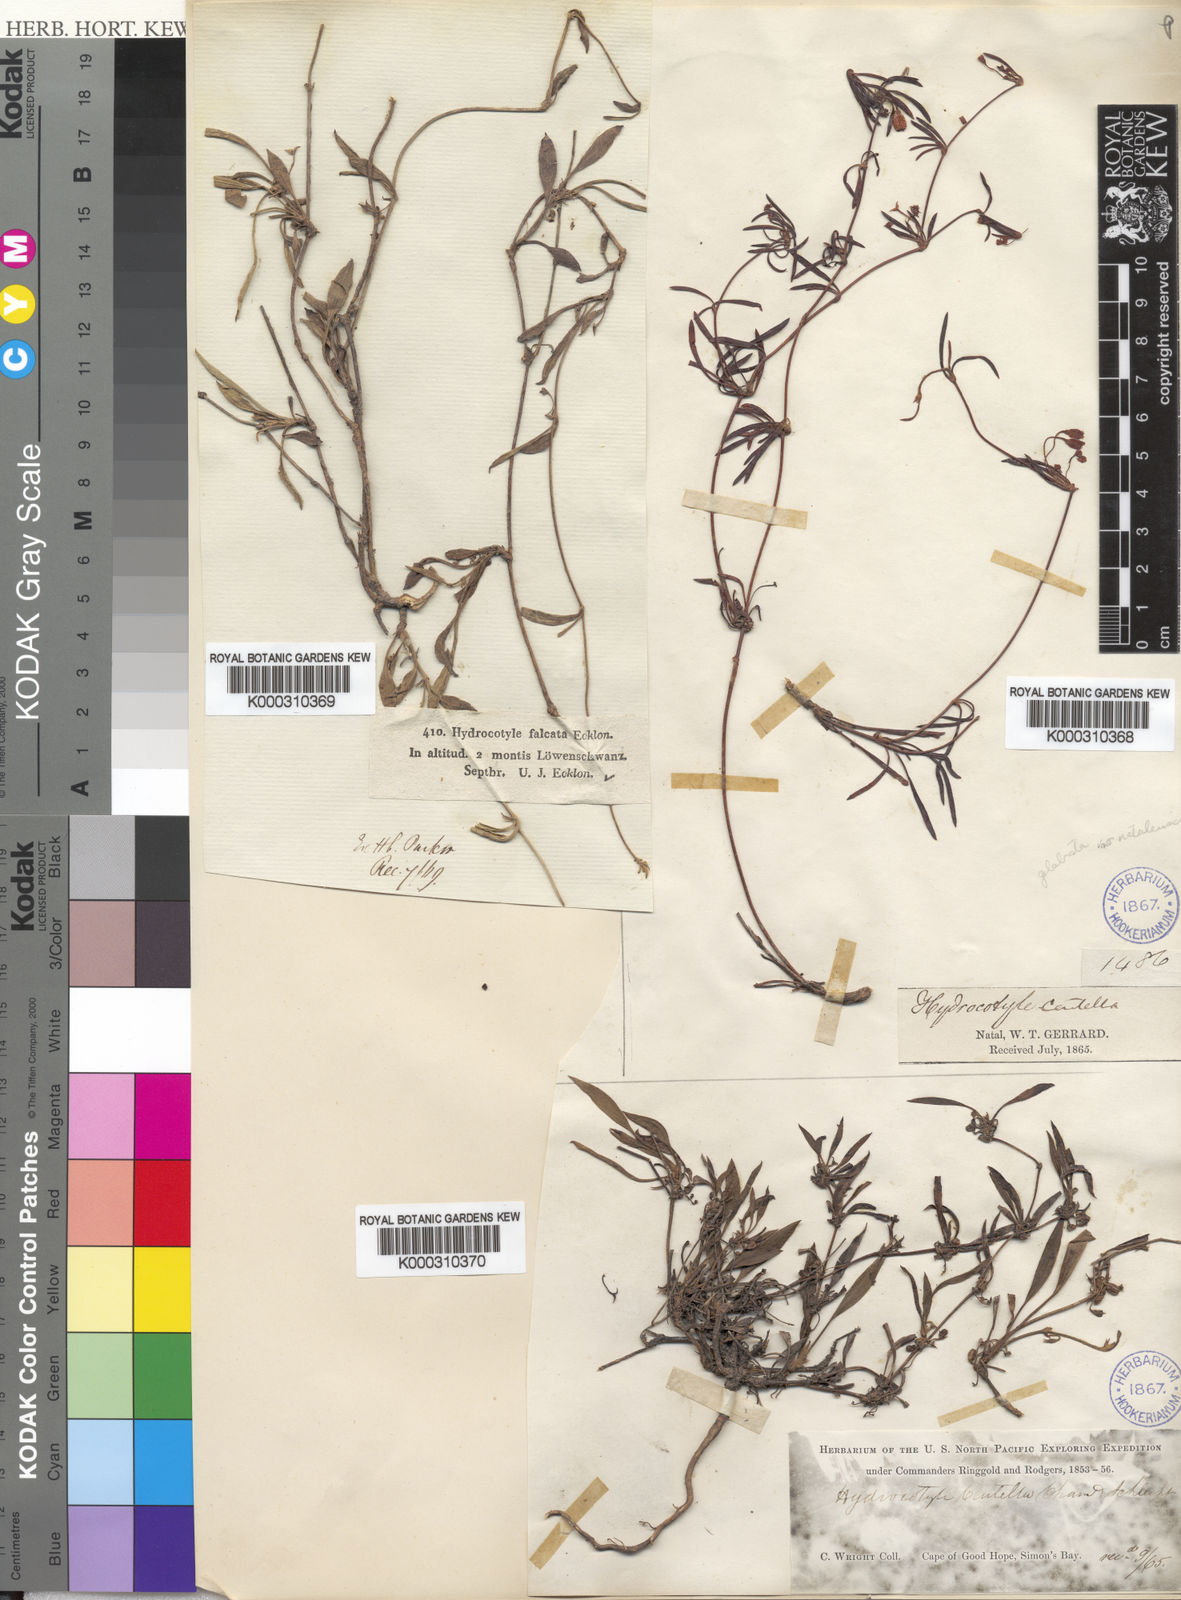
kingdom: Plantae
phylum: Tracheophyta
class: Magnoliopsida
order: Apiales
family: Apiaceae
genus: Centella
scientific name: Centella glabrata
